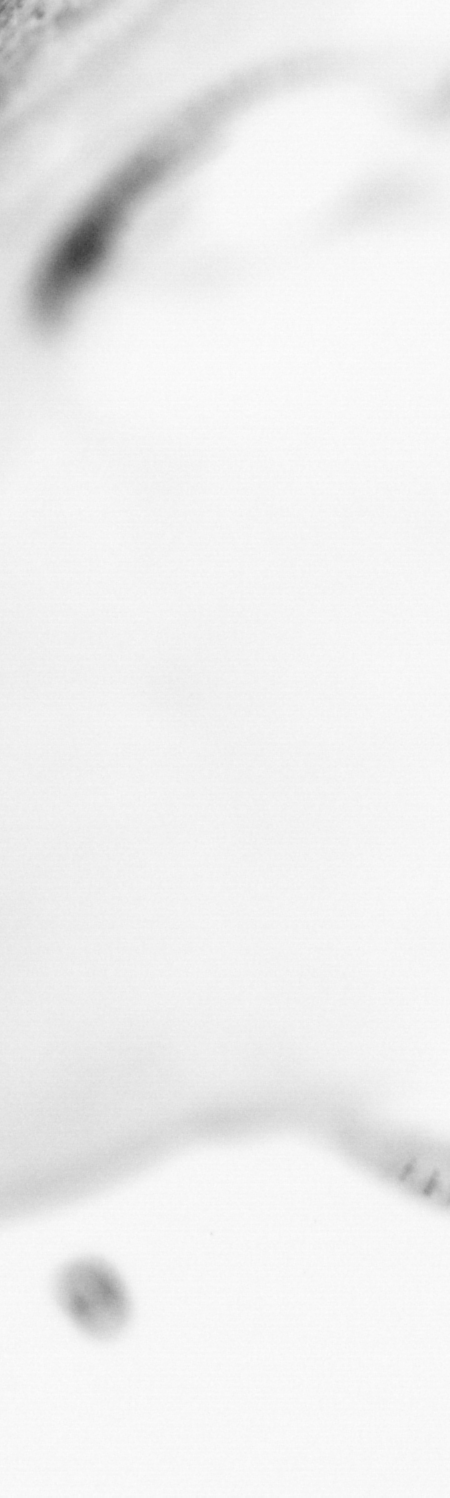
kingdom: Animalia
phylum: Chordata
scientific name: Chordata
